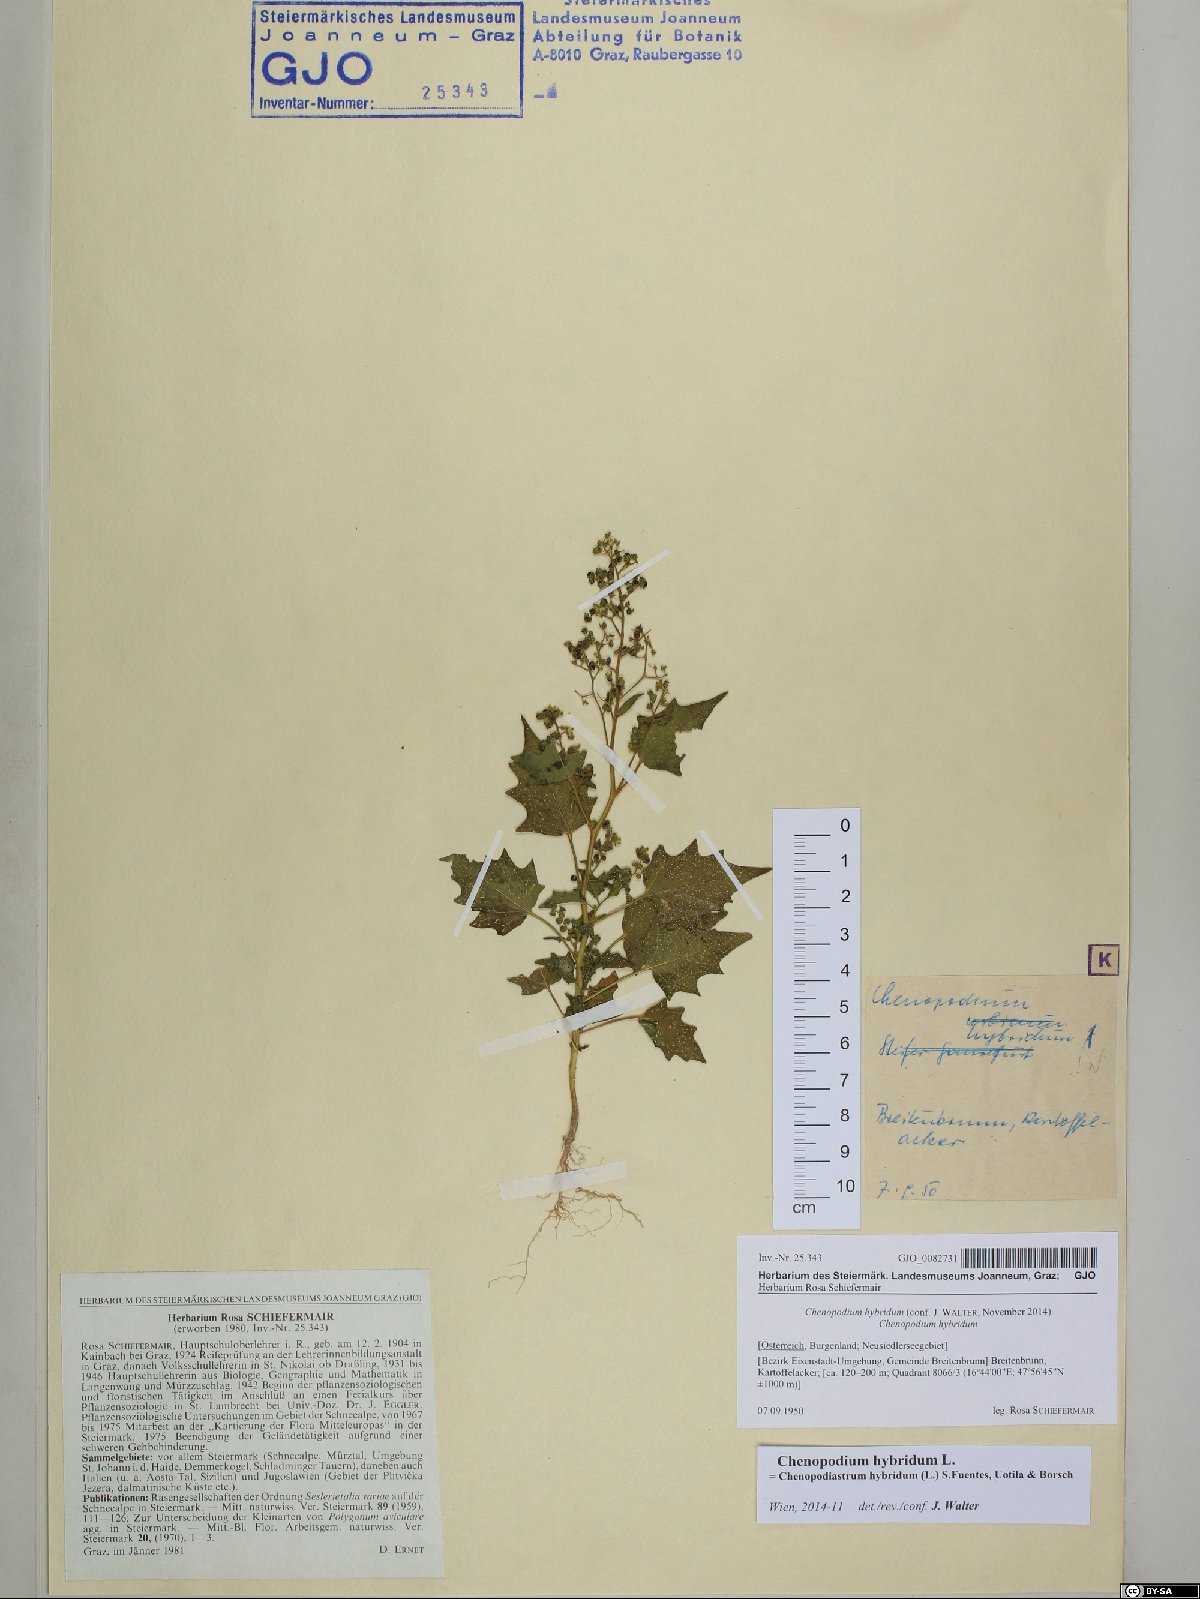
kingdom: Plantae
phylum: Tracheophyta
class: Magnoliopsida
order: Caryophyllales
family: Amaranthaceae
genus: Chenopodiastrum
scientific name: Chenopodiastrum hybridum
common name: Mapleleaf goosefoot
